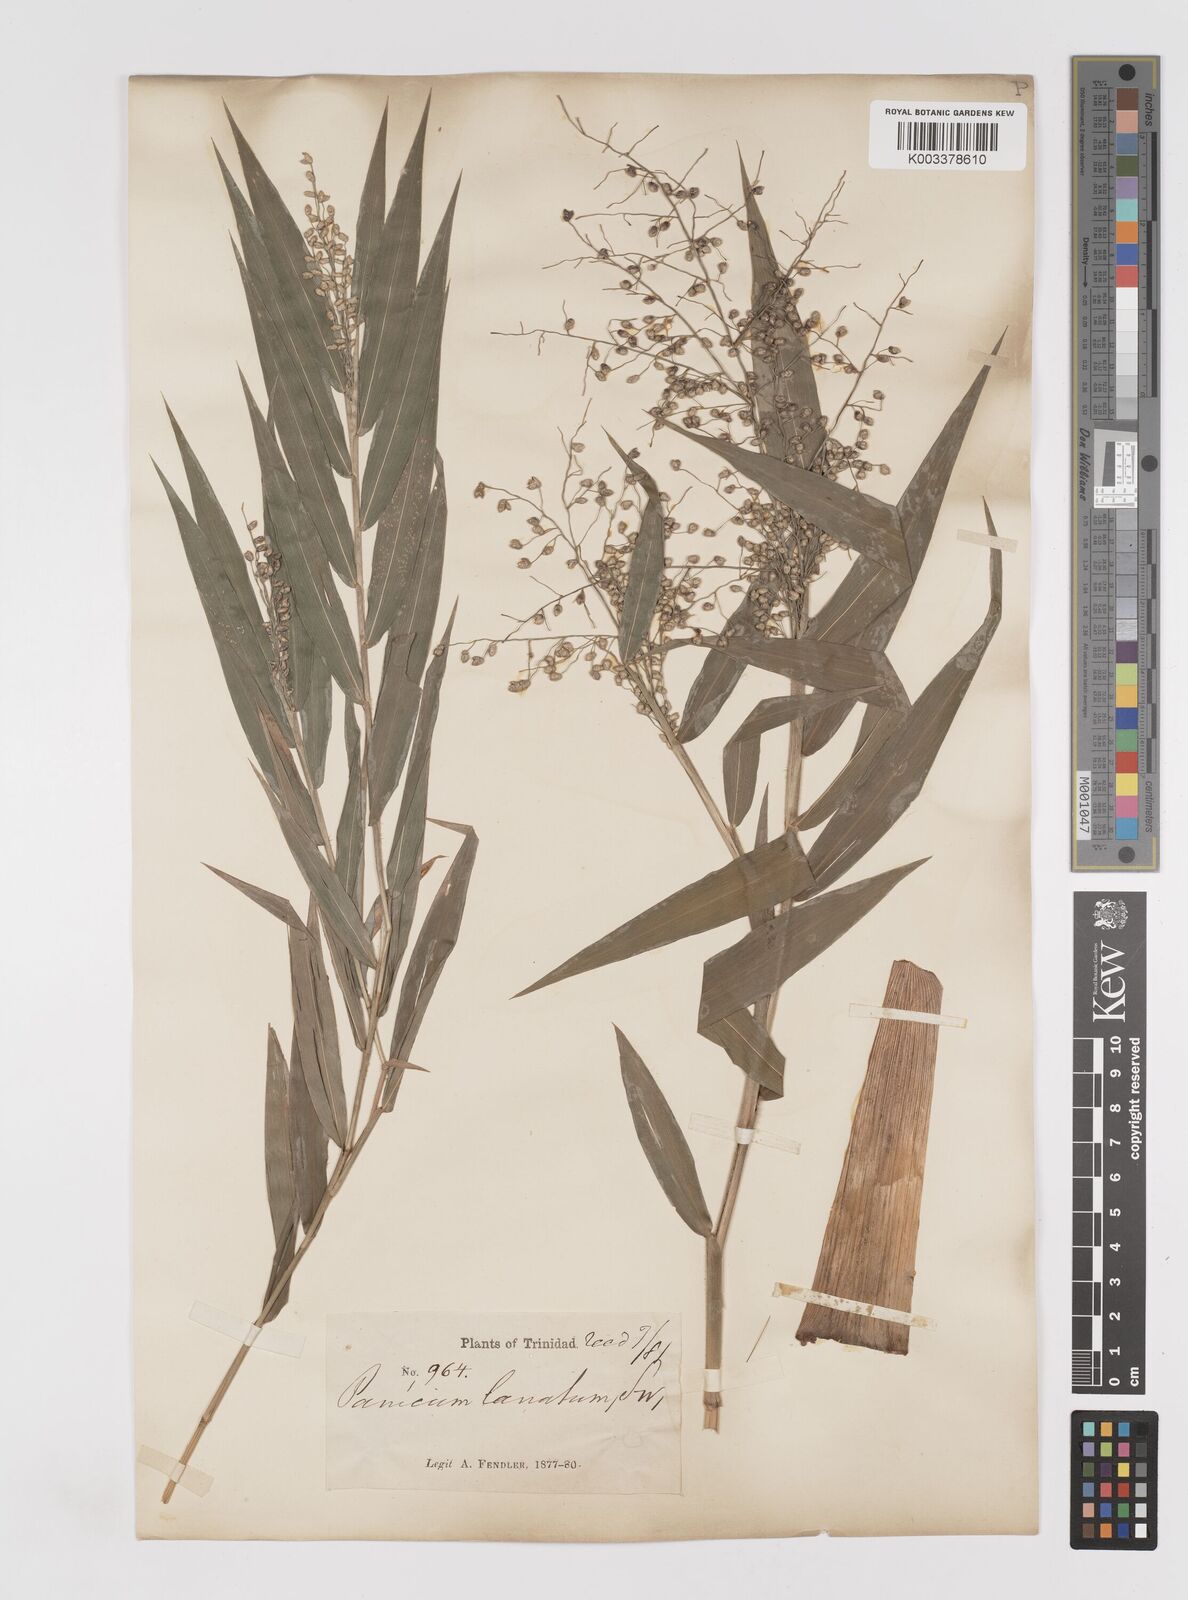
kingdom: Plantae
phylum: Tracheophyta
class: Liliopsida
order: Poales
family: Poaceae
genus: Lasiacis
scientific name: Lasiacis maculata
